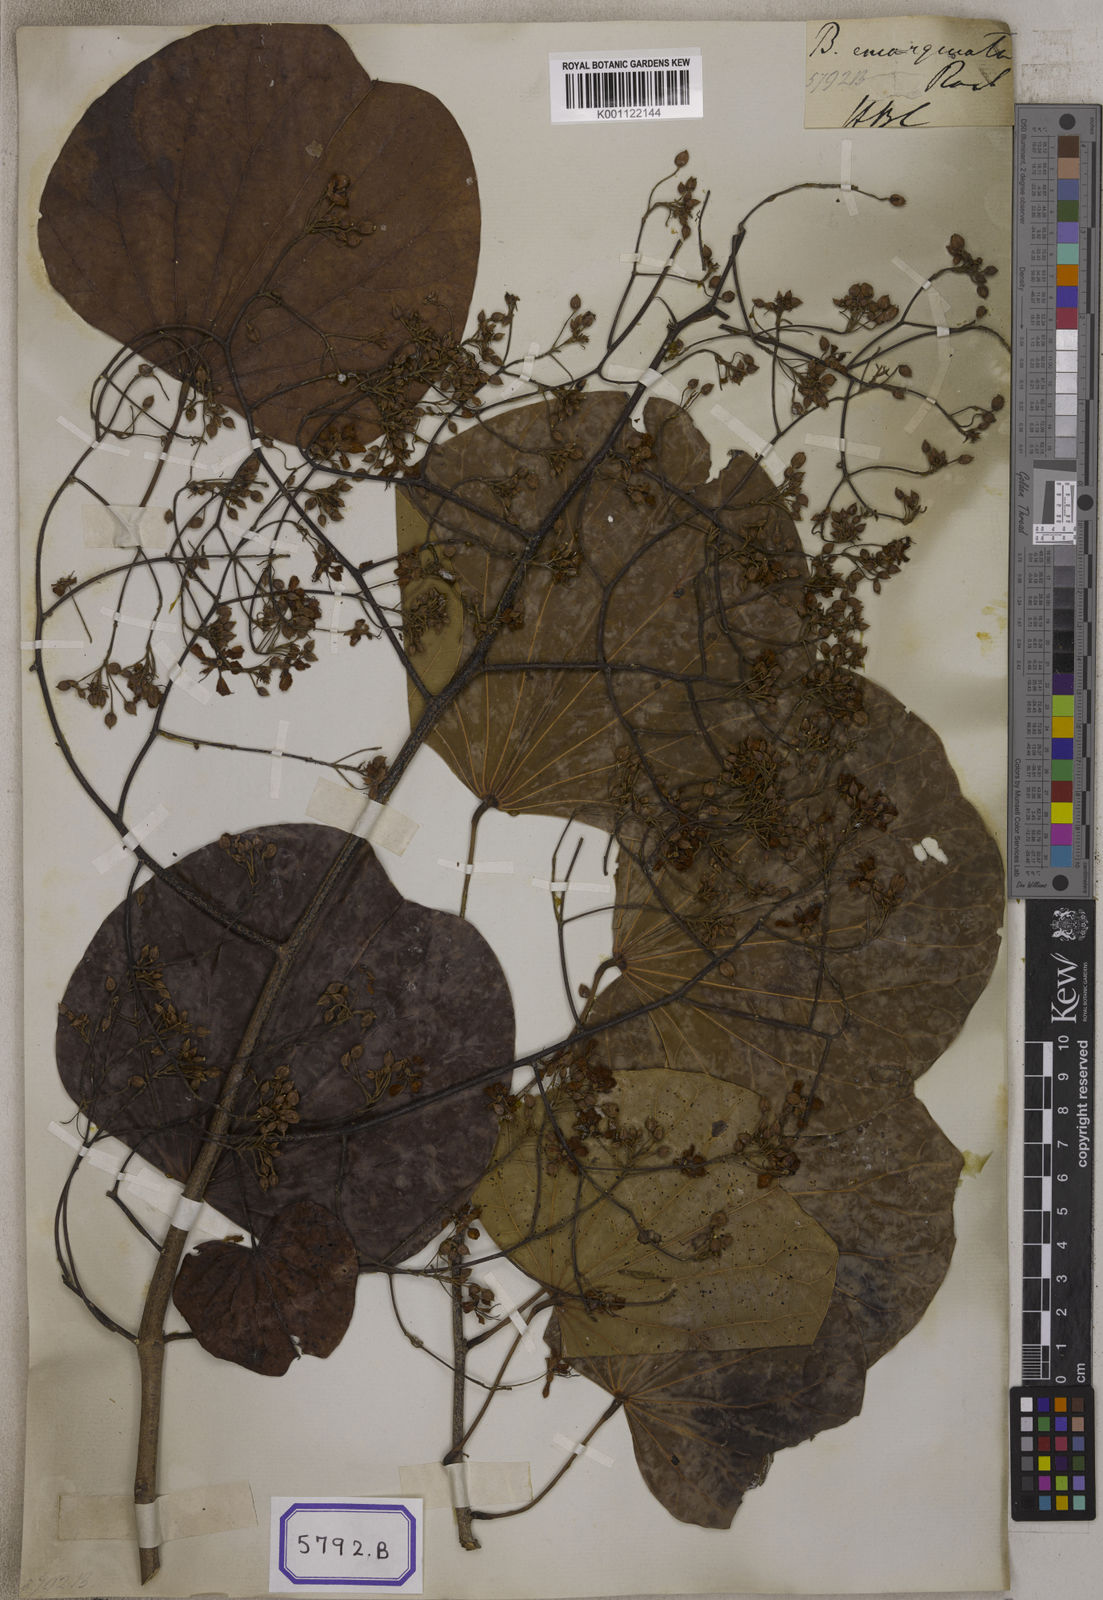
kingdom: Plantae
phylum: Tracheophyta
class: Magnoliopsida
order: Fabales
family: Fabaceae
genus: Bauhinia
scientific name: Bauhinia
